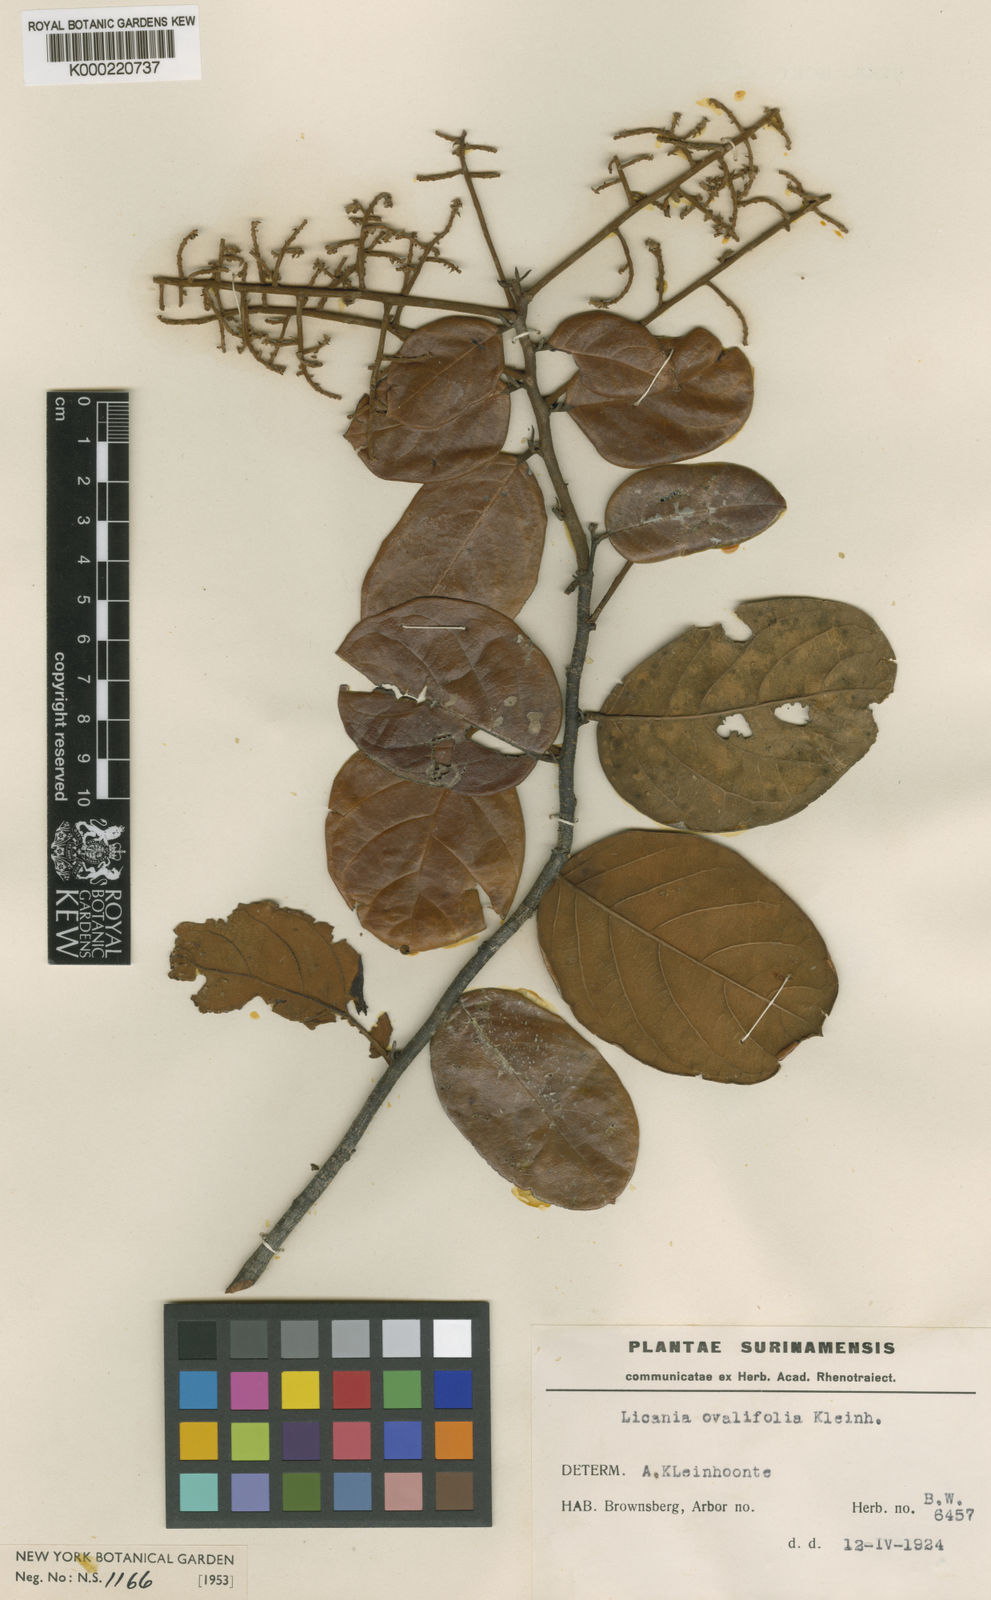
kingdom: Plantae
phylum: Tracheophyta
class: Magnoliopsida
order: Malpighiales
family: Chrysobalanaceae
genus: Licania
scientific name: Licania ovalifolia
